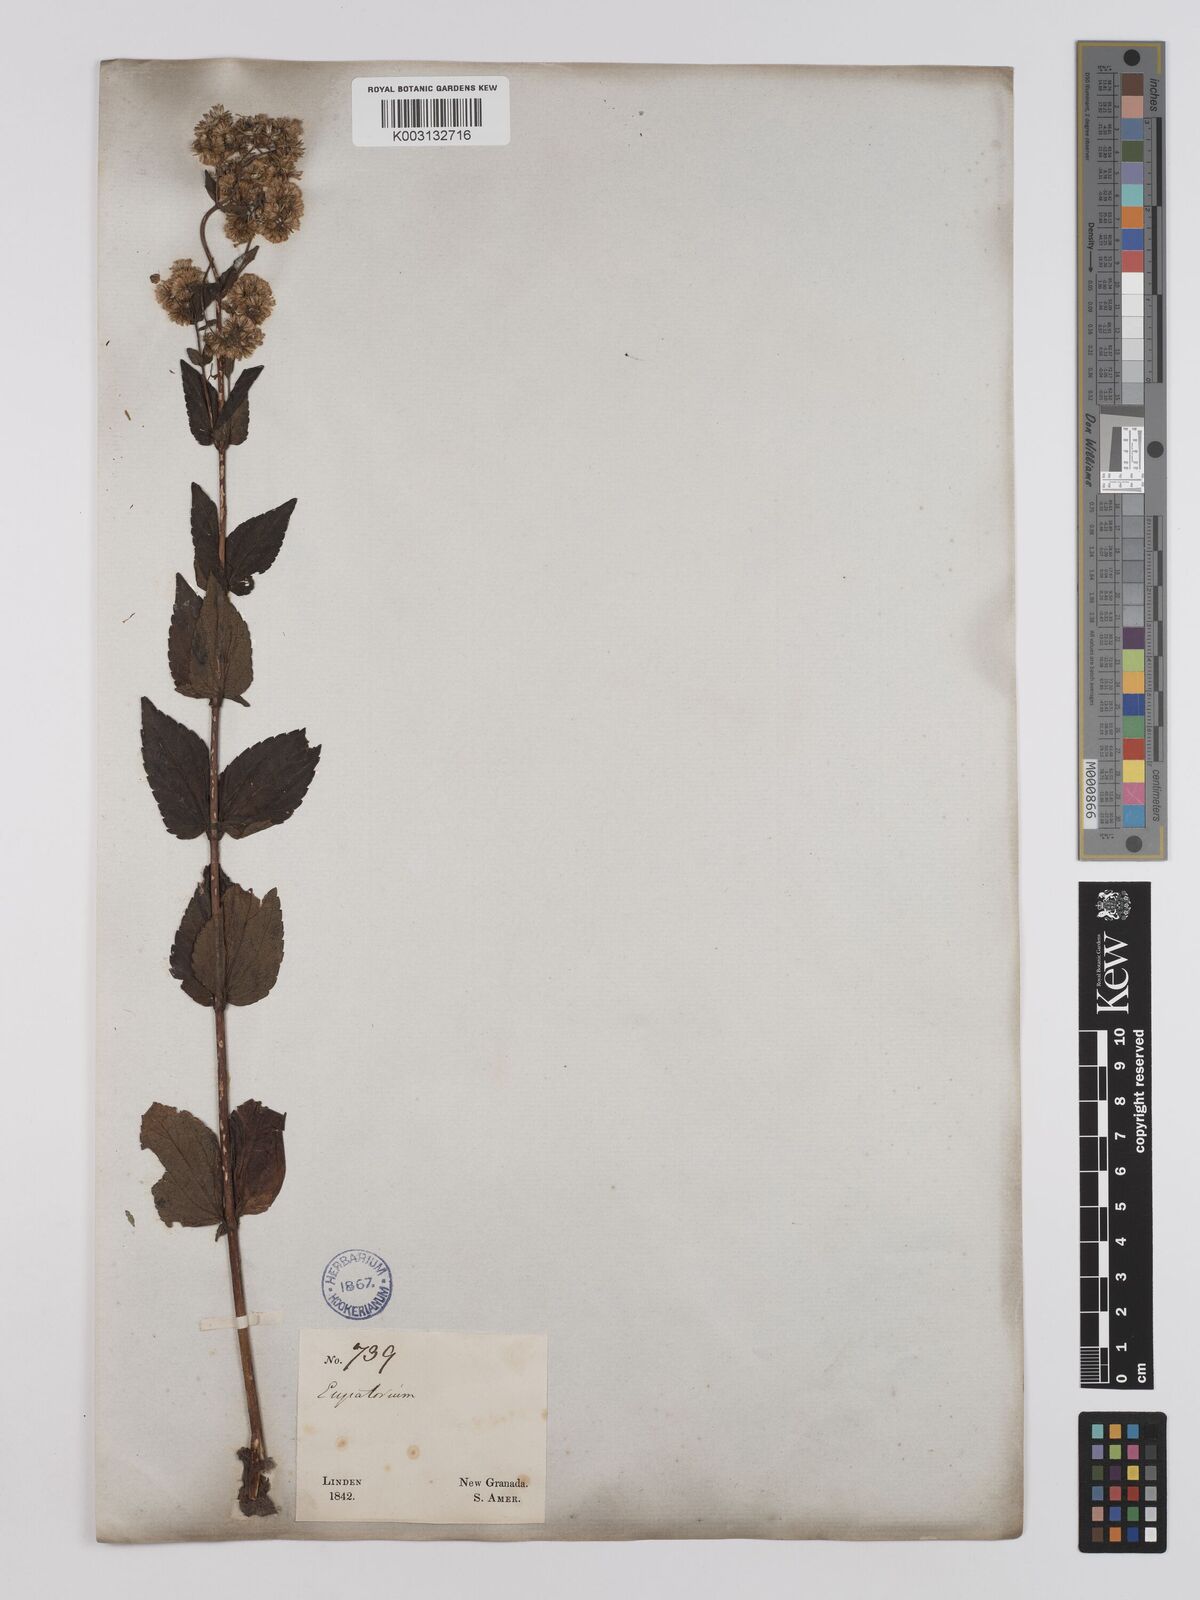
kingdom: Plantae
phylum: Tracheophyta
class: Magnoliopsida
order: Asterales
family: Asteraceae
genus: Ageratina
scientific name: Ageratina gracilis
